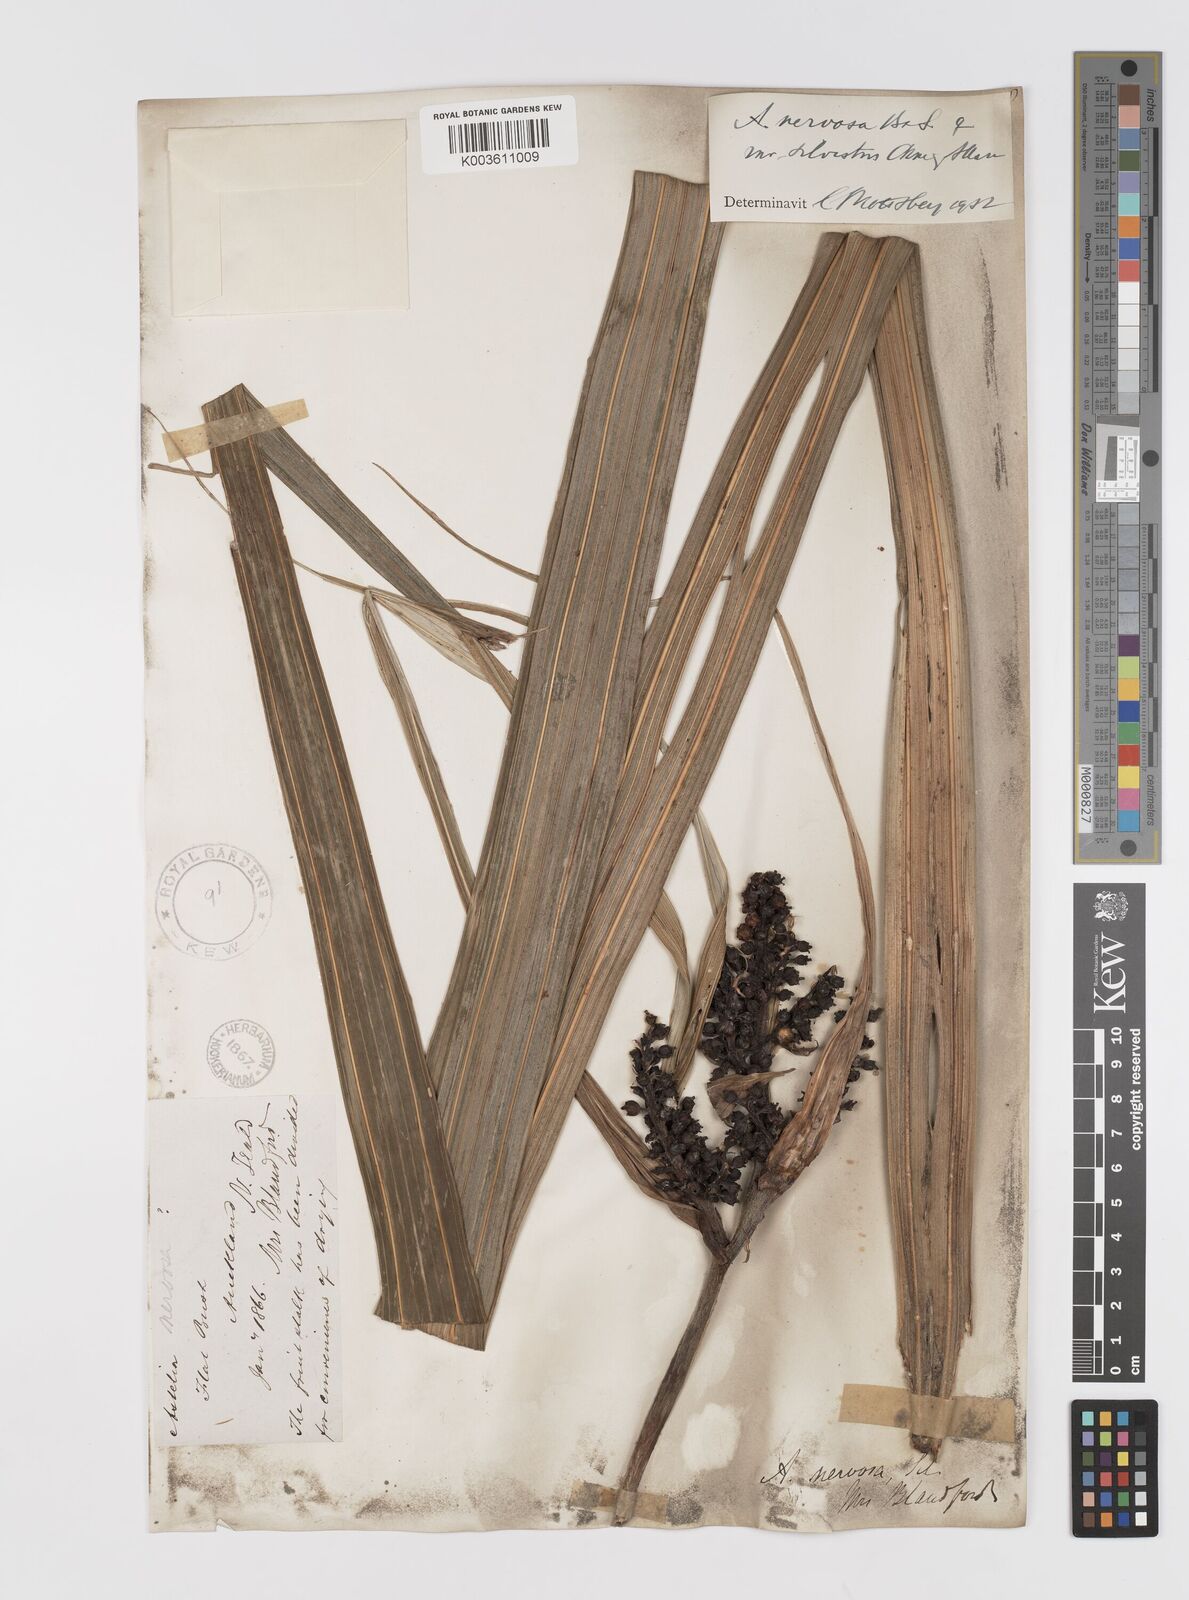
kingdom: Plantae
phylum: Tracheophyta
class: Liliopsida
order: Asparagales
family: Asteliaceae
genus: Astelia
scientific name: Astelia nervosa
